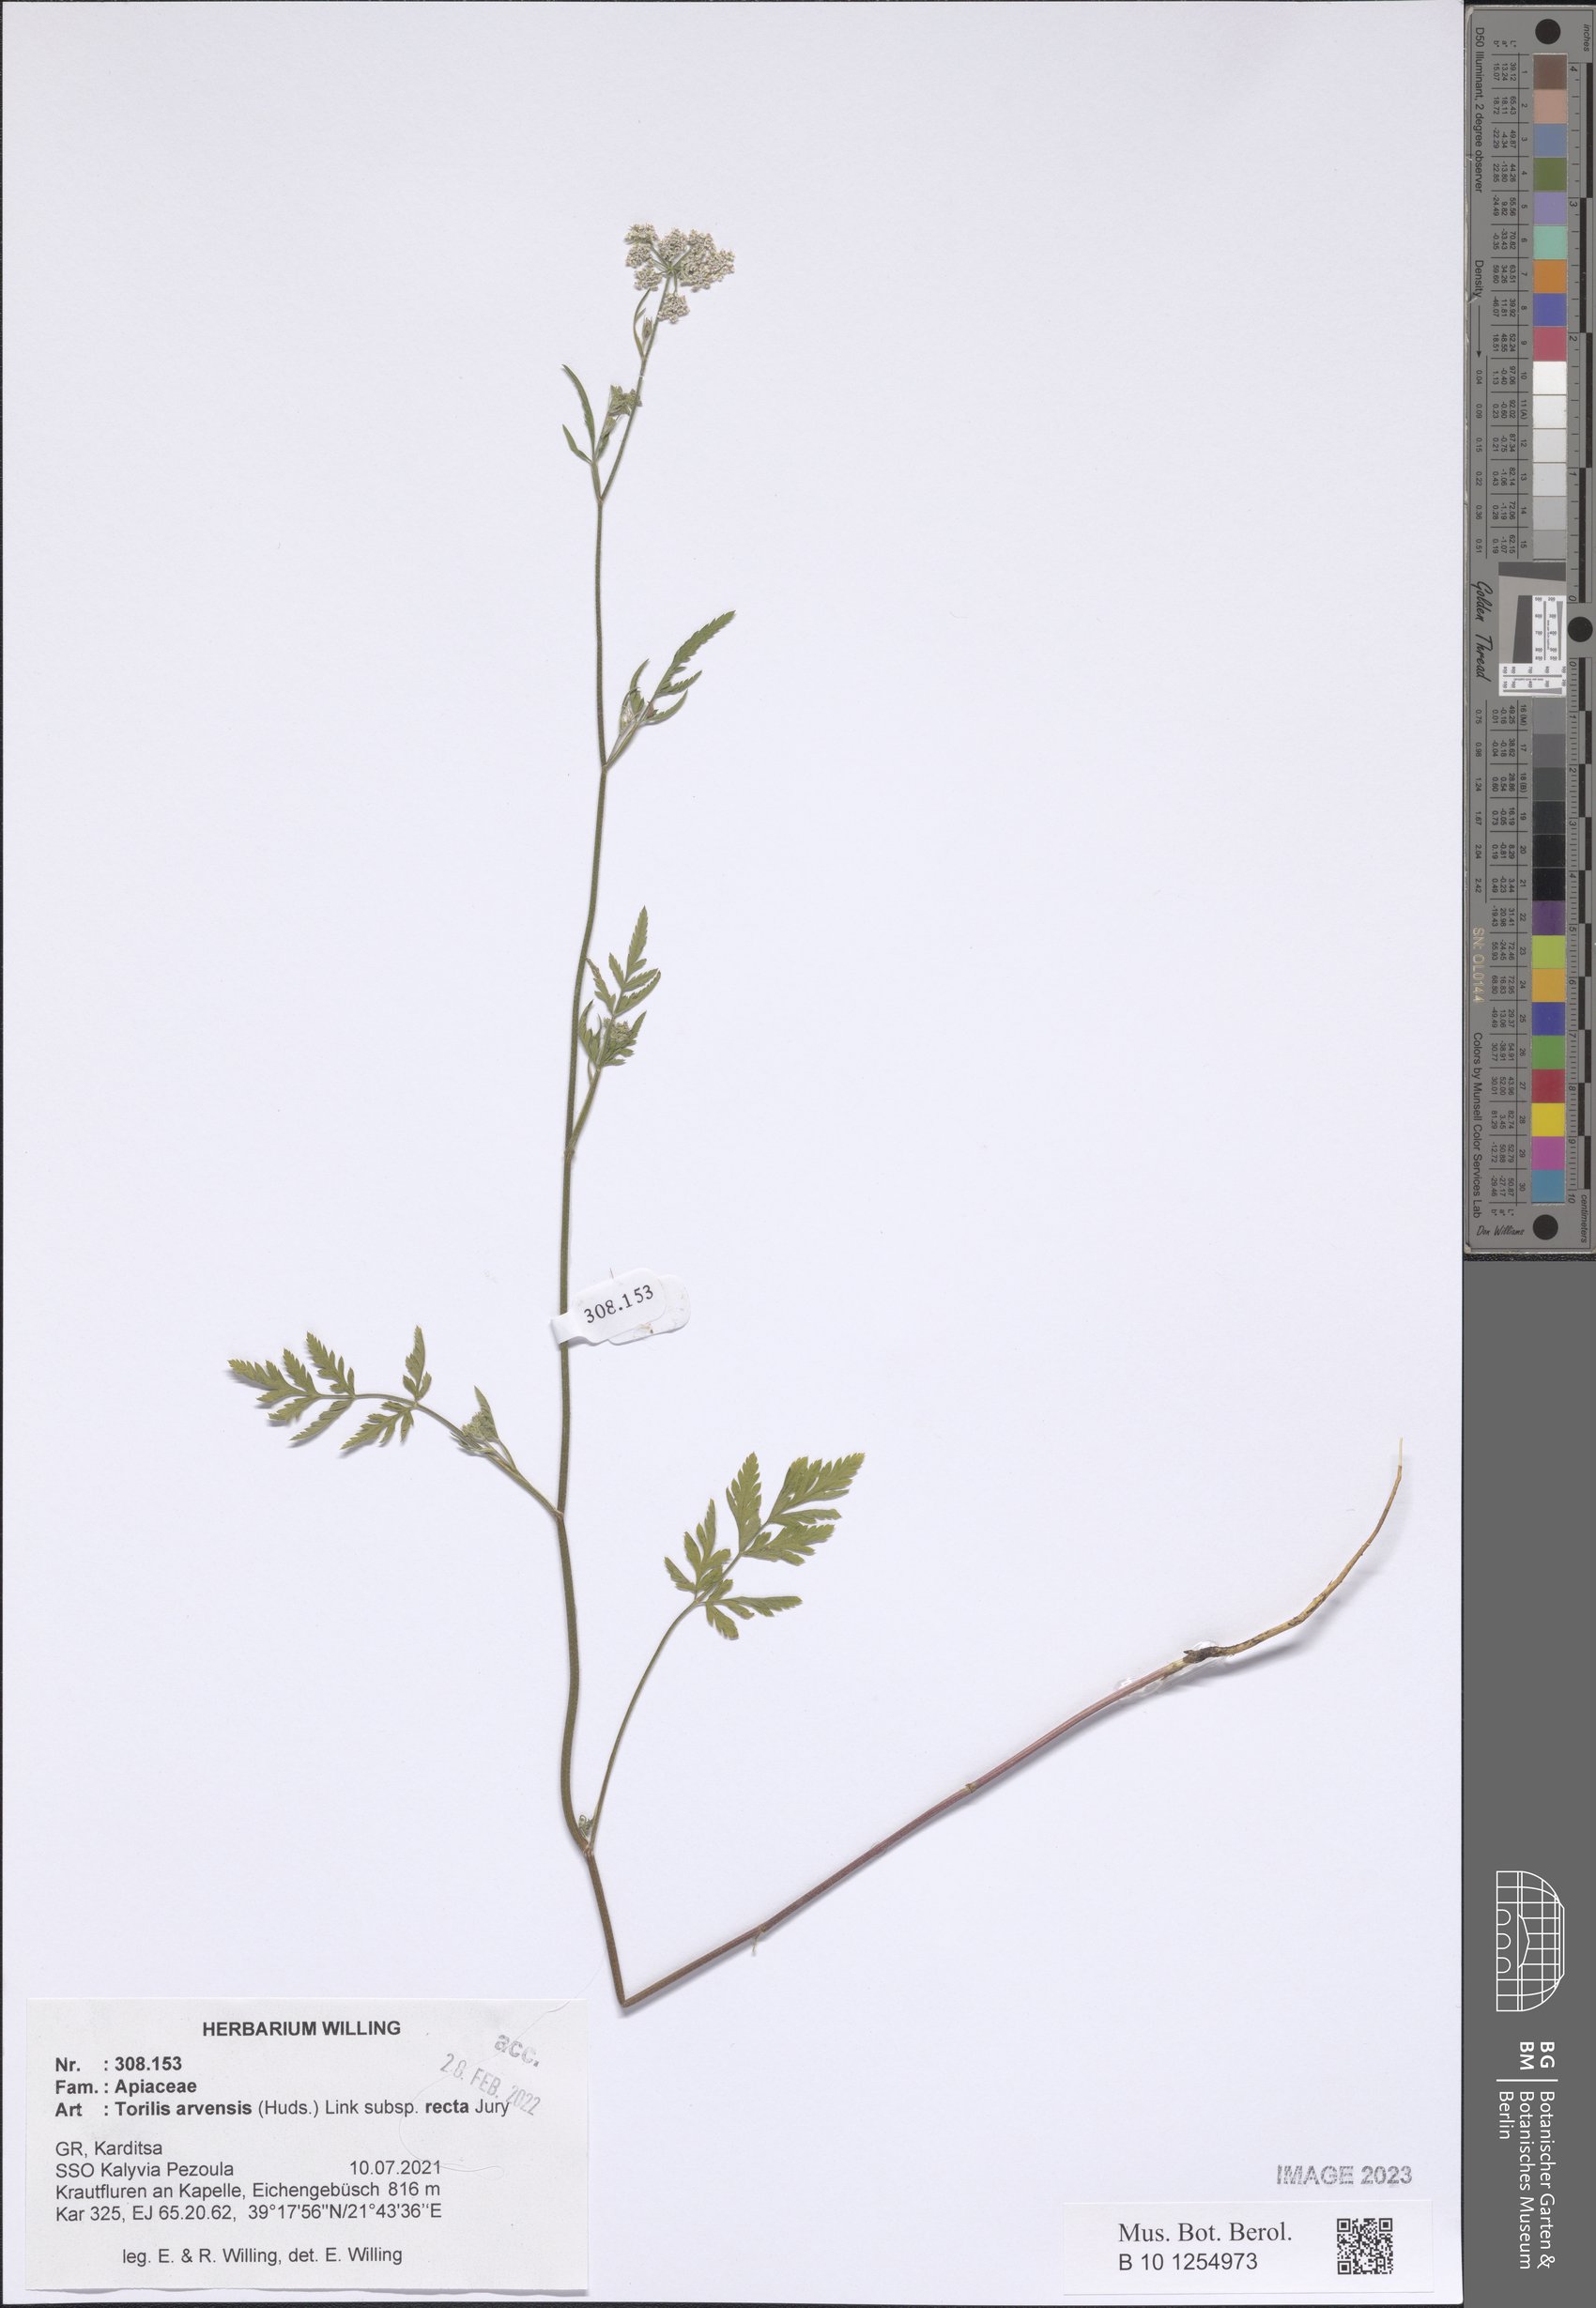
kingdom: Plantae
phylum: Tracheophyta
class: Magnoliopsida
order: Apiales
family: Apiaceae
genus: Torilis
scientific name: Torilis arvensis
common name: Spreading hedge-parsley
